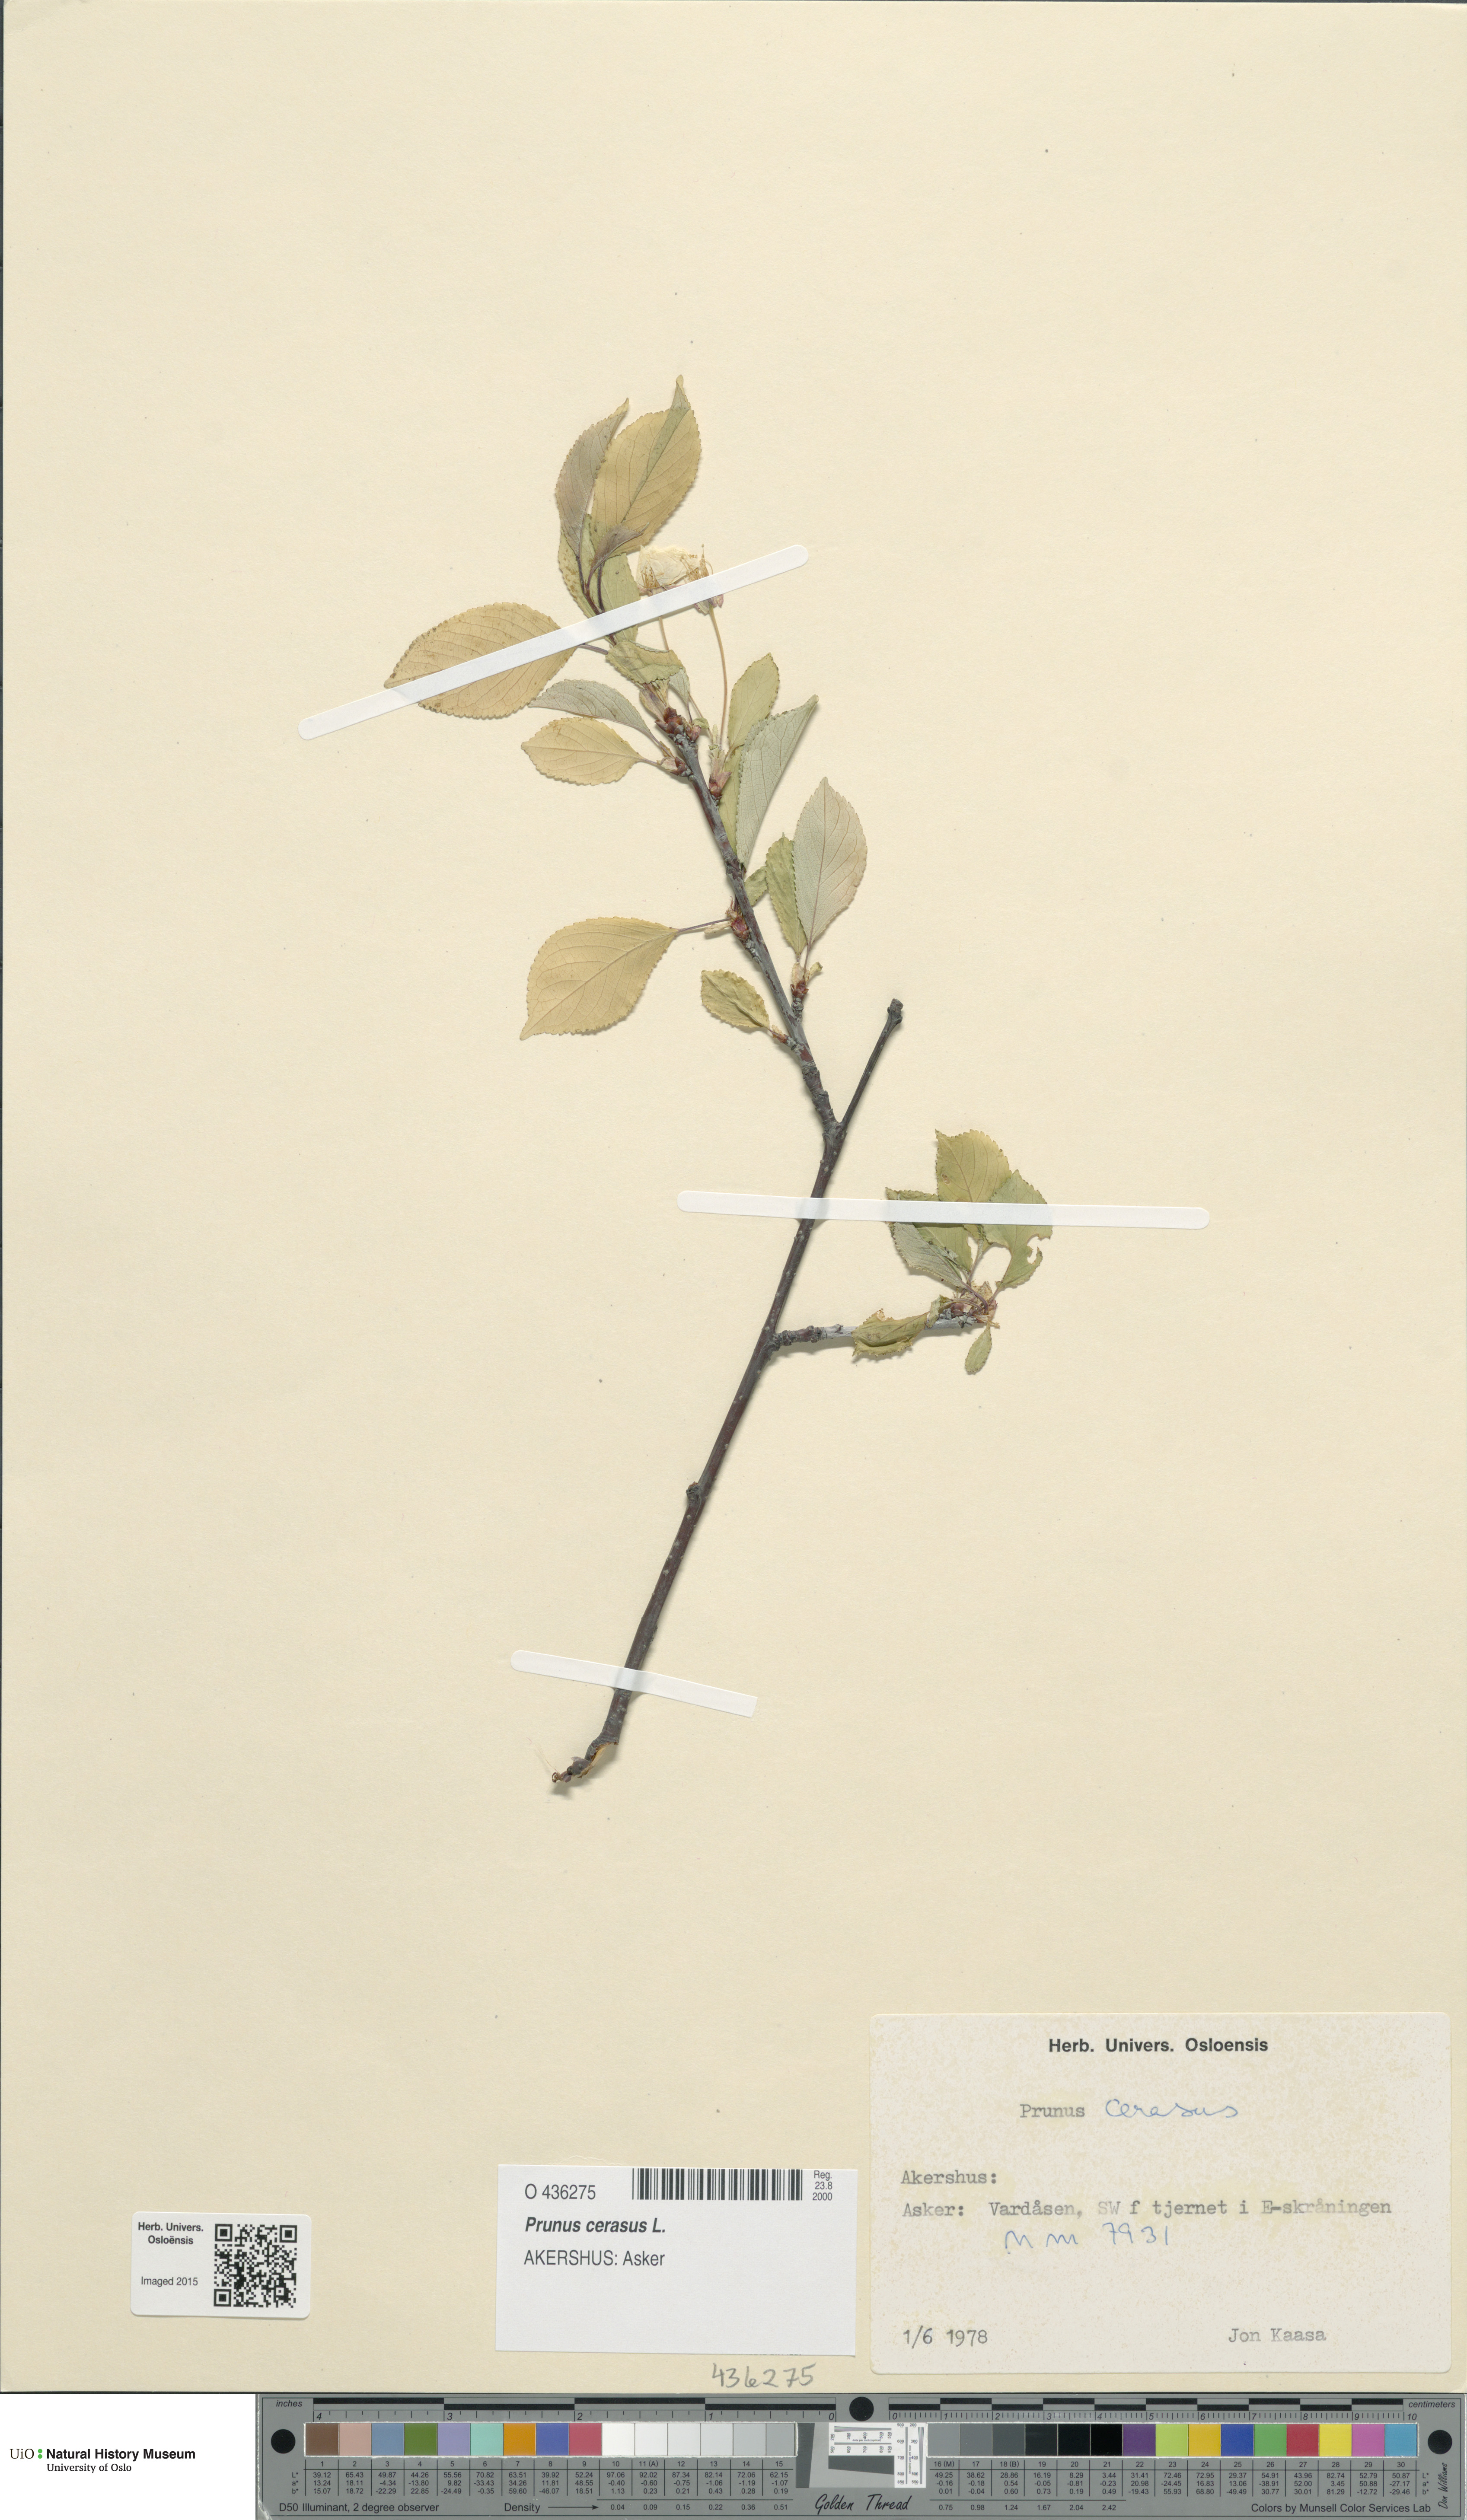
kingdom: Plantae
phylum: Tracheophyta
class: Magnoliopsida
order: Rosales
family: Rosaceae
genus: Prunus
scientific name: Prunus cerasus
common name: Morello cherry
